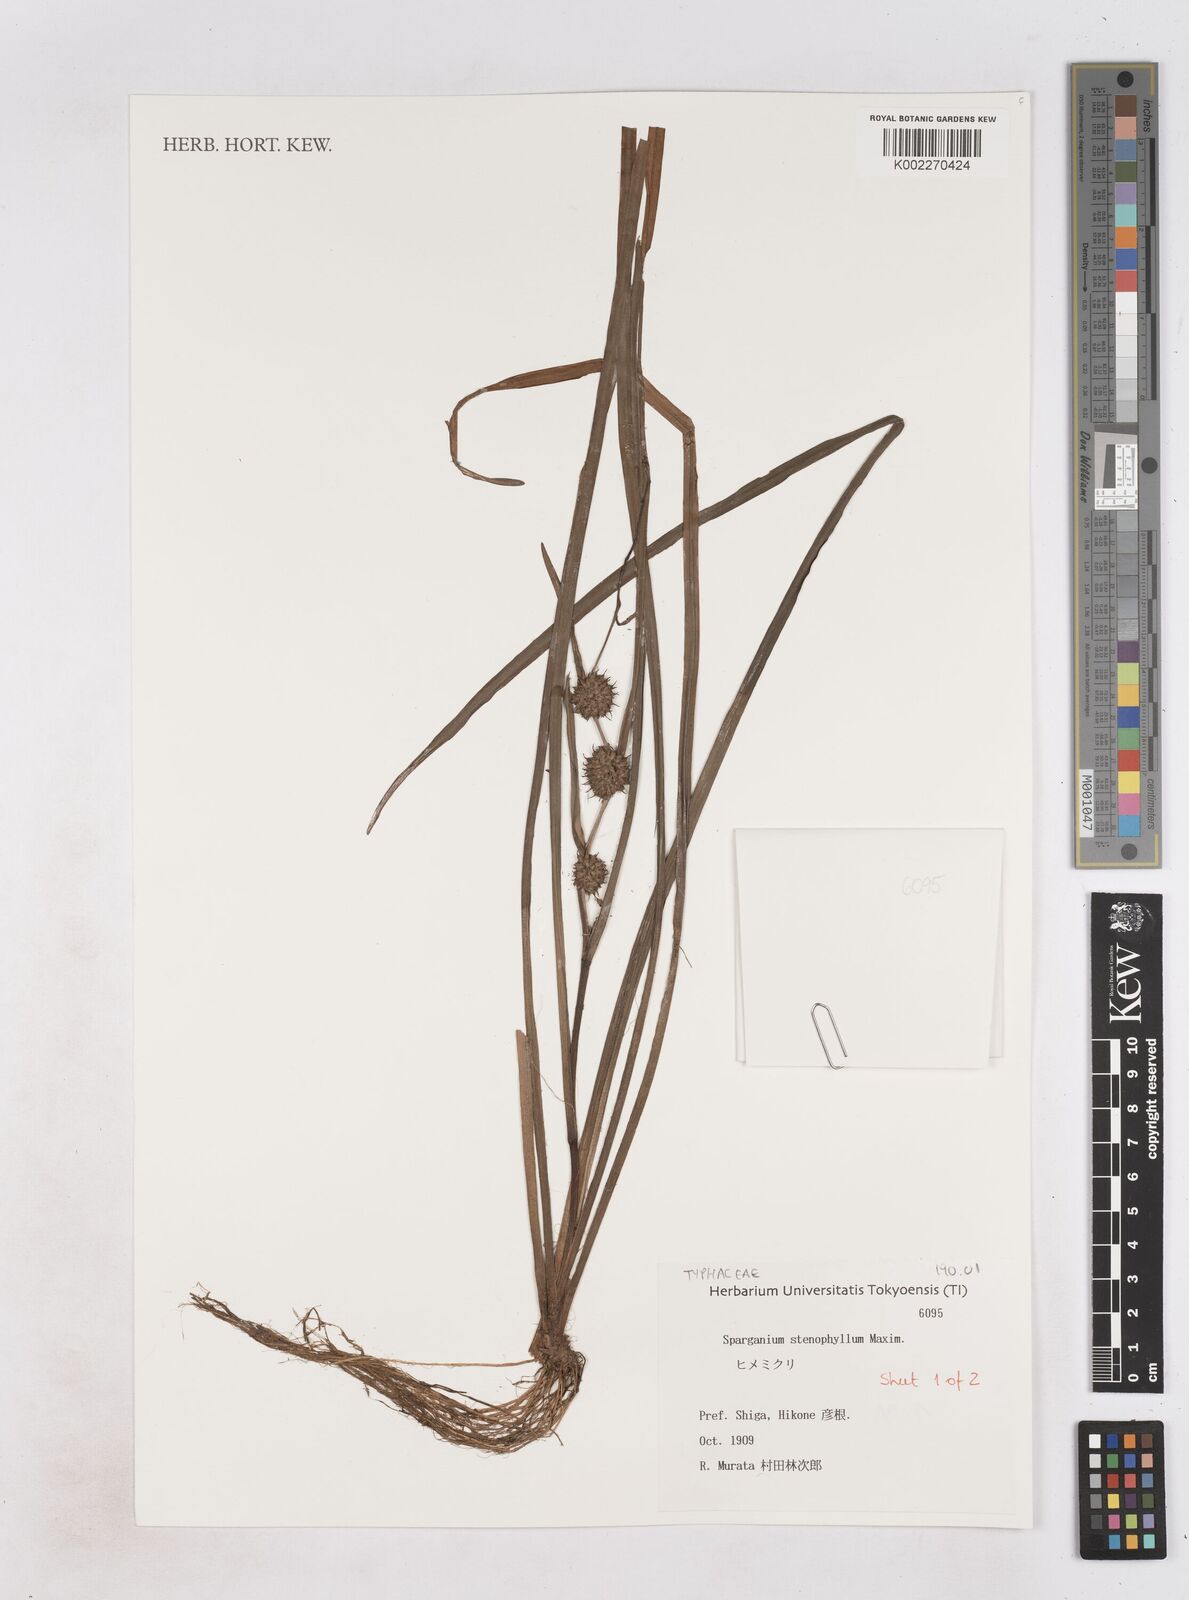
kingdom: Plantae
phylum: Tracheophyta
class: Liliopsida
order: Poales
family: Typhaceae
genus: Sparganium
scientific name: Sparganium subglobosum
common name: Burr­-reed
